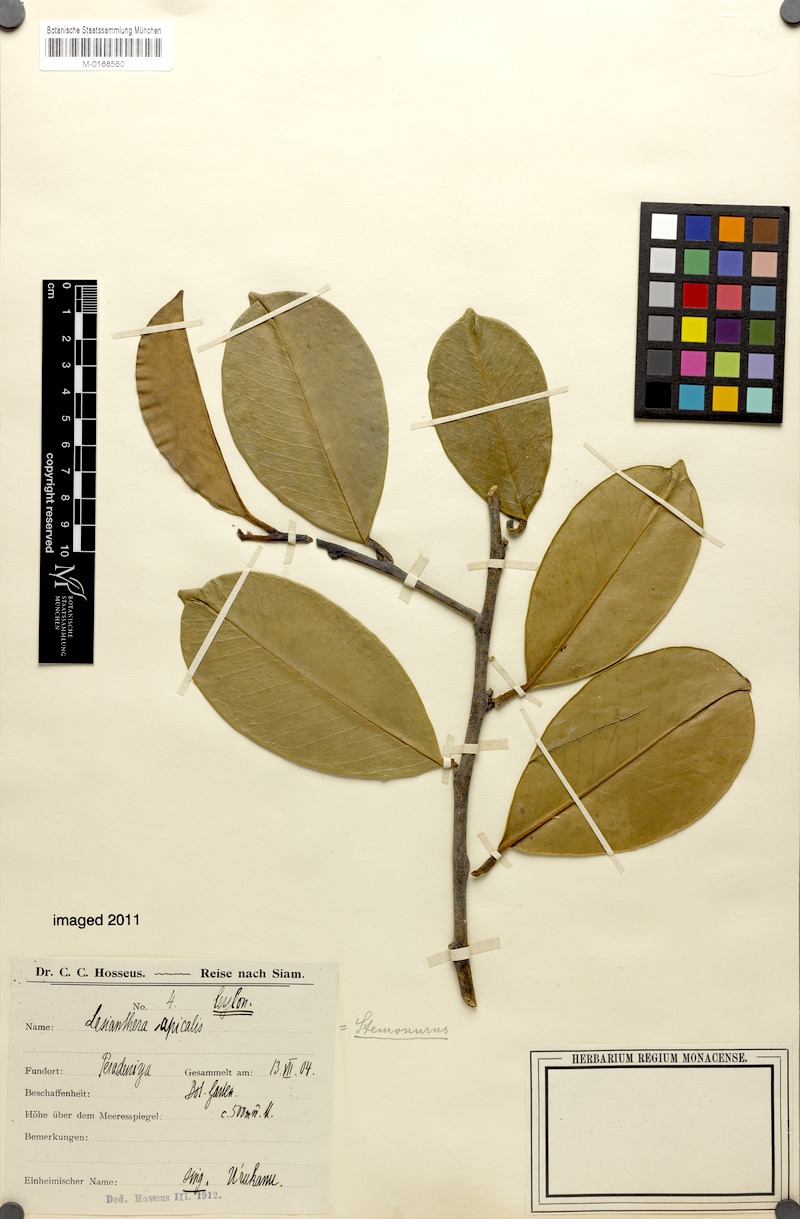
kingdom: Plantae
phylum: Tracheophyta
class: Magnoliopsida
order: Cardiopteridales
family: Stemonuraceae
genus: Lasianthera
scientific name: Lasianthera apicalis
